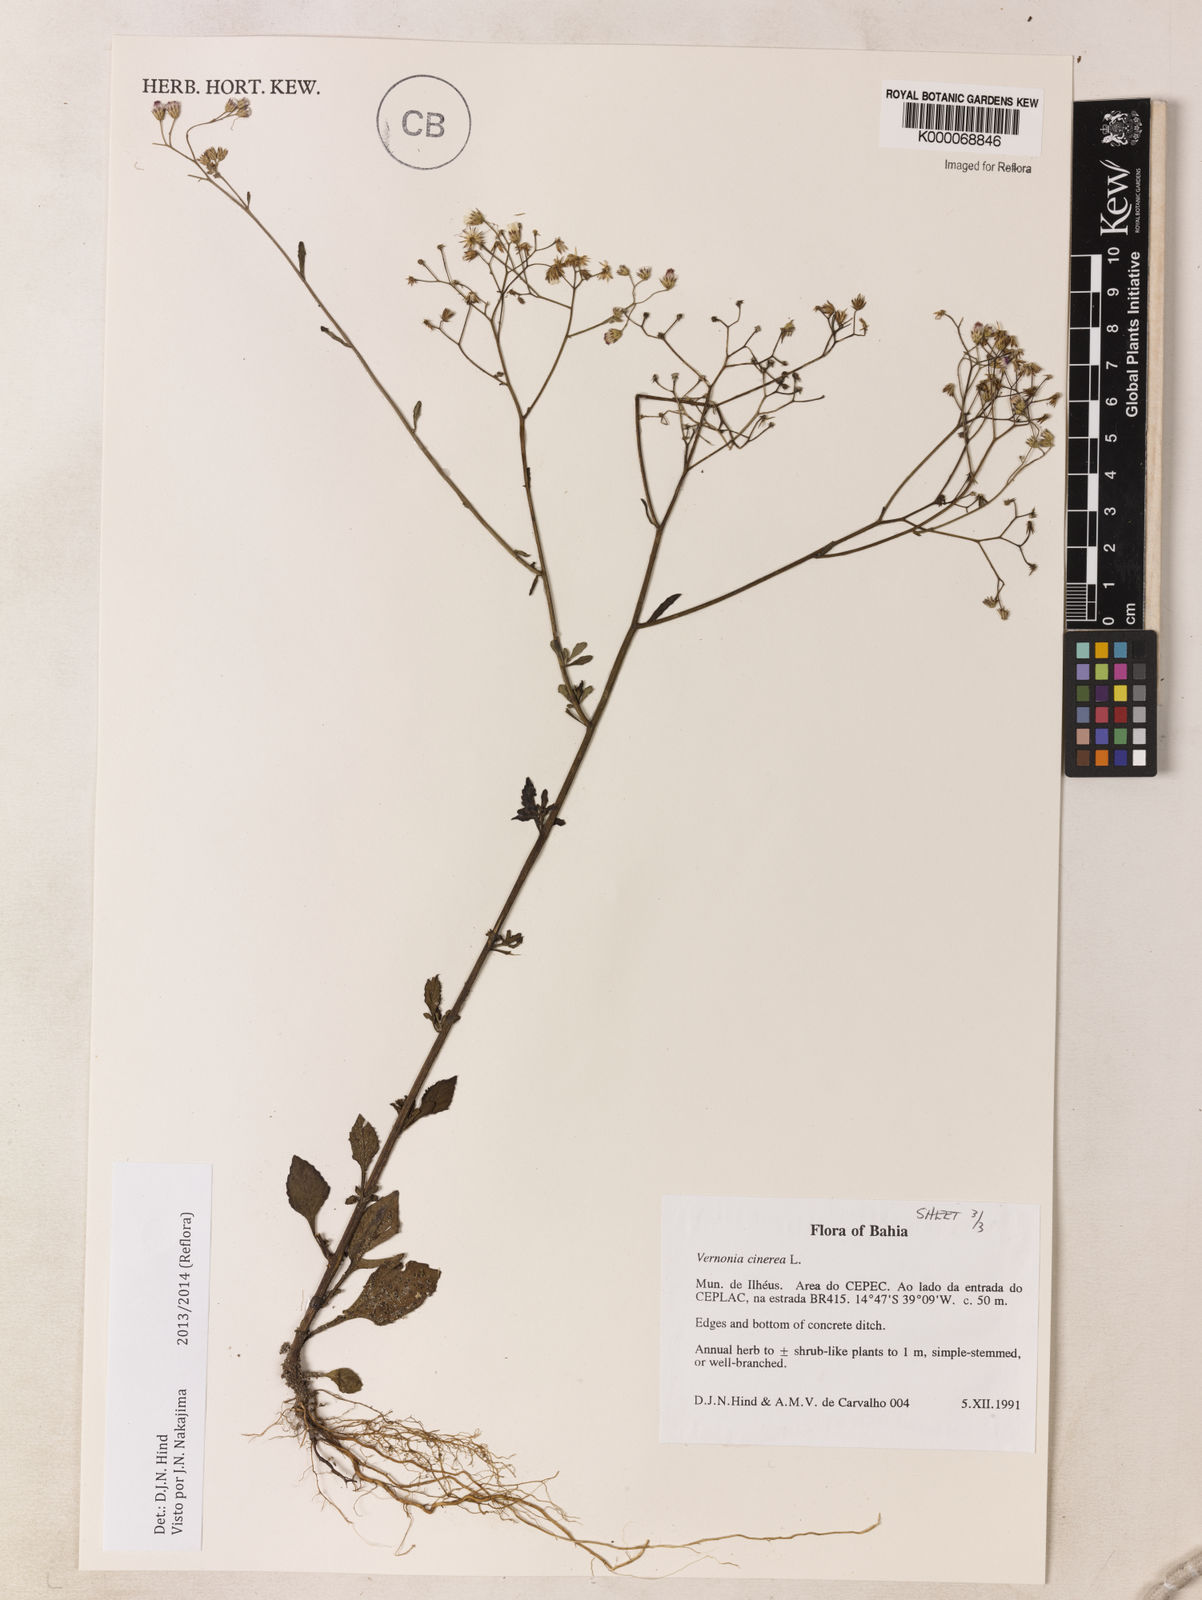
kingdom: Plantae
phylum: Tracheophyta
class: Magnoliopsida
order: Asterales
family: Asteraceae
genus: Cyanthillium
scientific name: Cyanthillium cinereum
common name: Little ironweed
